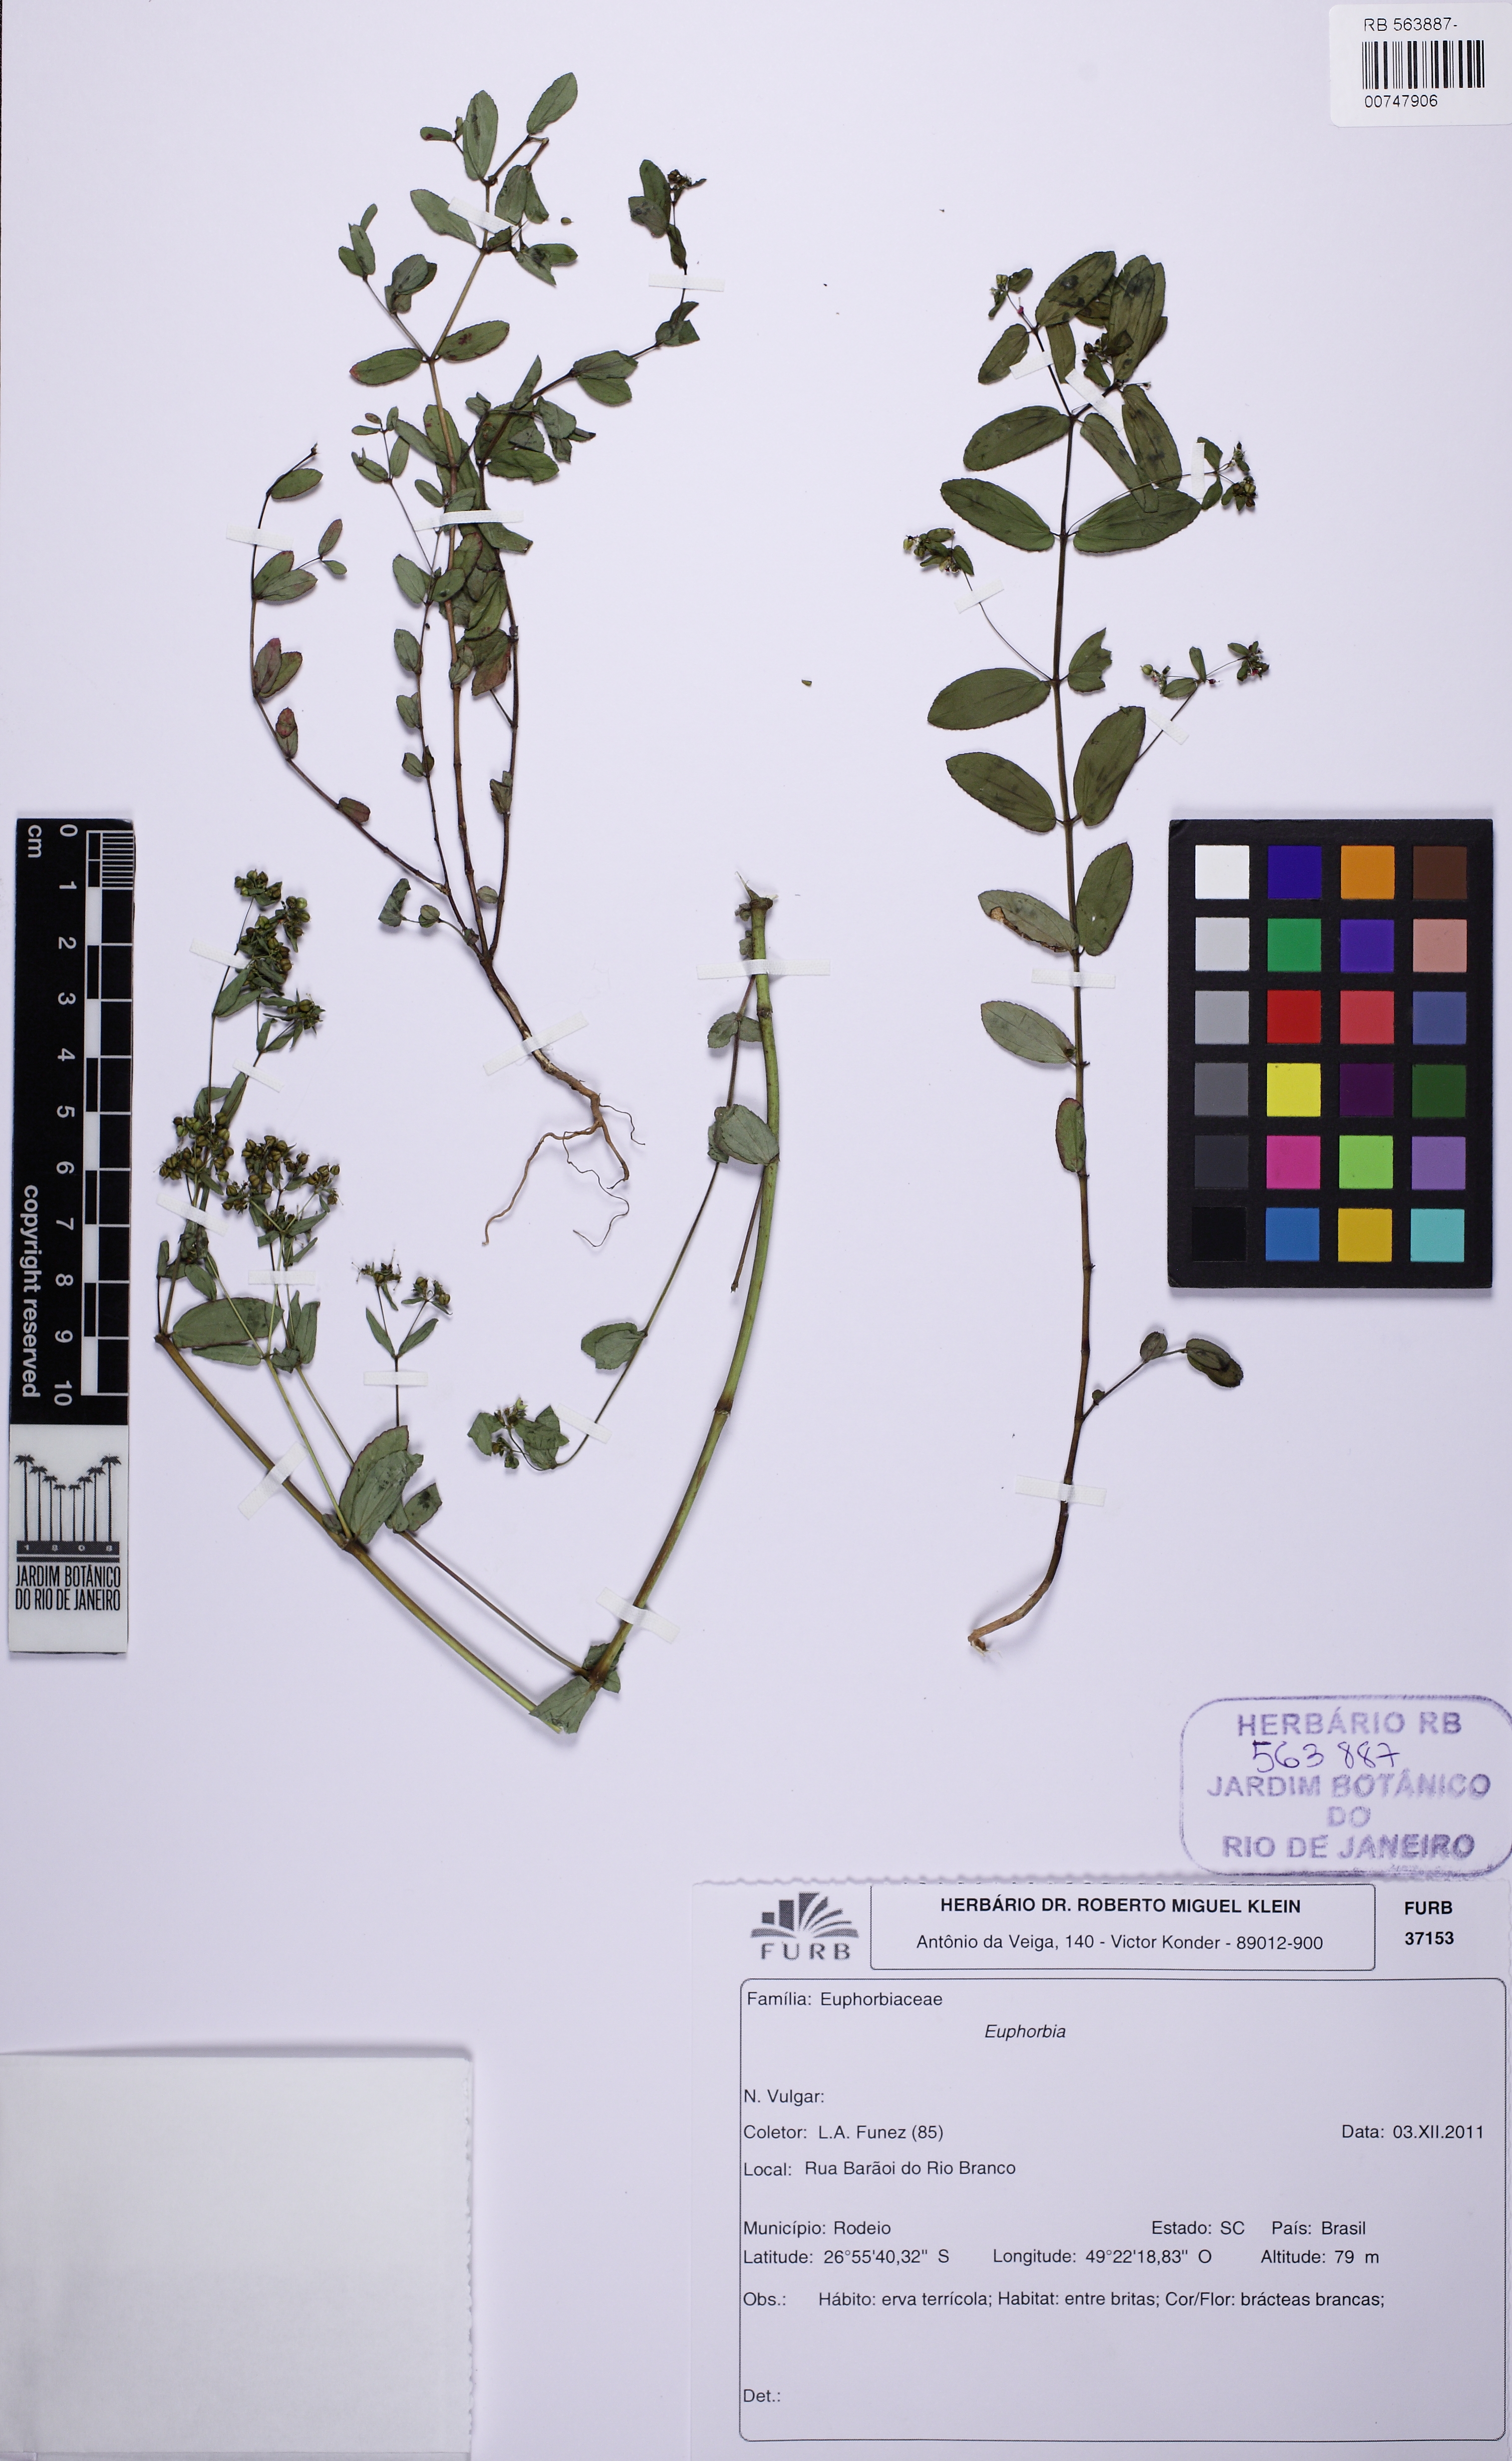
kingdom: Plantae
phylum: Tracheophyta
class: Magnoliopsida
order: Malpighiales
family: Euphorbiaceae
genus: Euphorbia
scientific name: Euphorbia hyssopifolia
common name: Hyssopleaf sandmat
